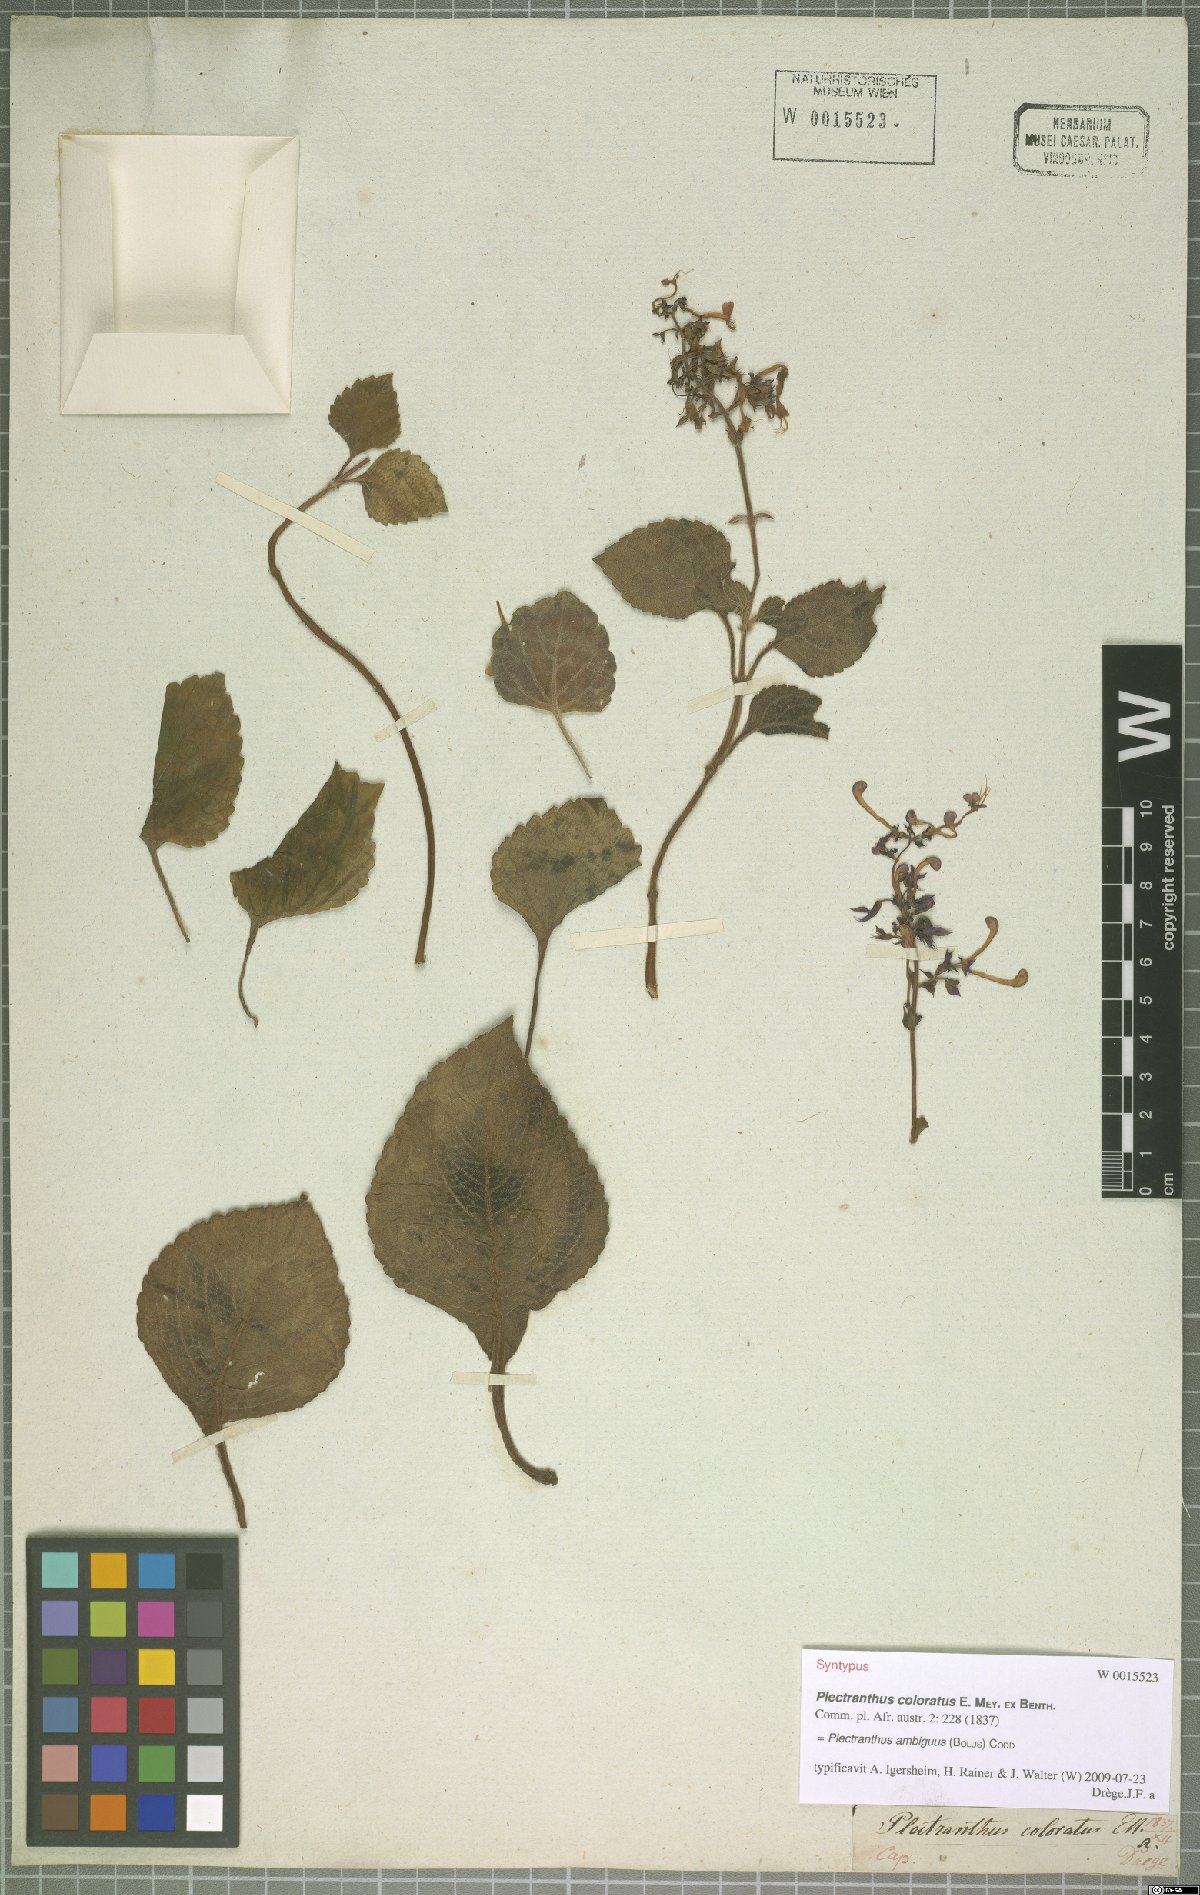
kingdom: Plantae
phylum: Tracheophyta
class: Magnoliopsida
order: Lamiales
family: Lamiaceae
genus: Plectranthus
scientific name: Plectranthus ambiguus
